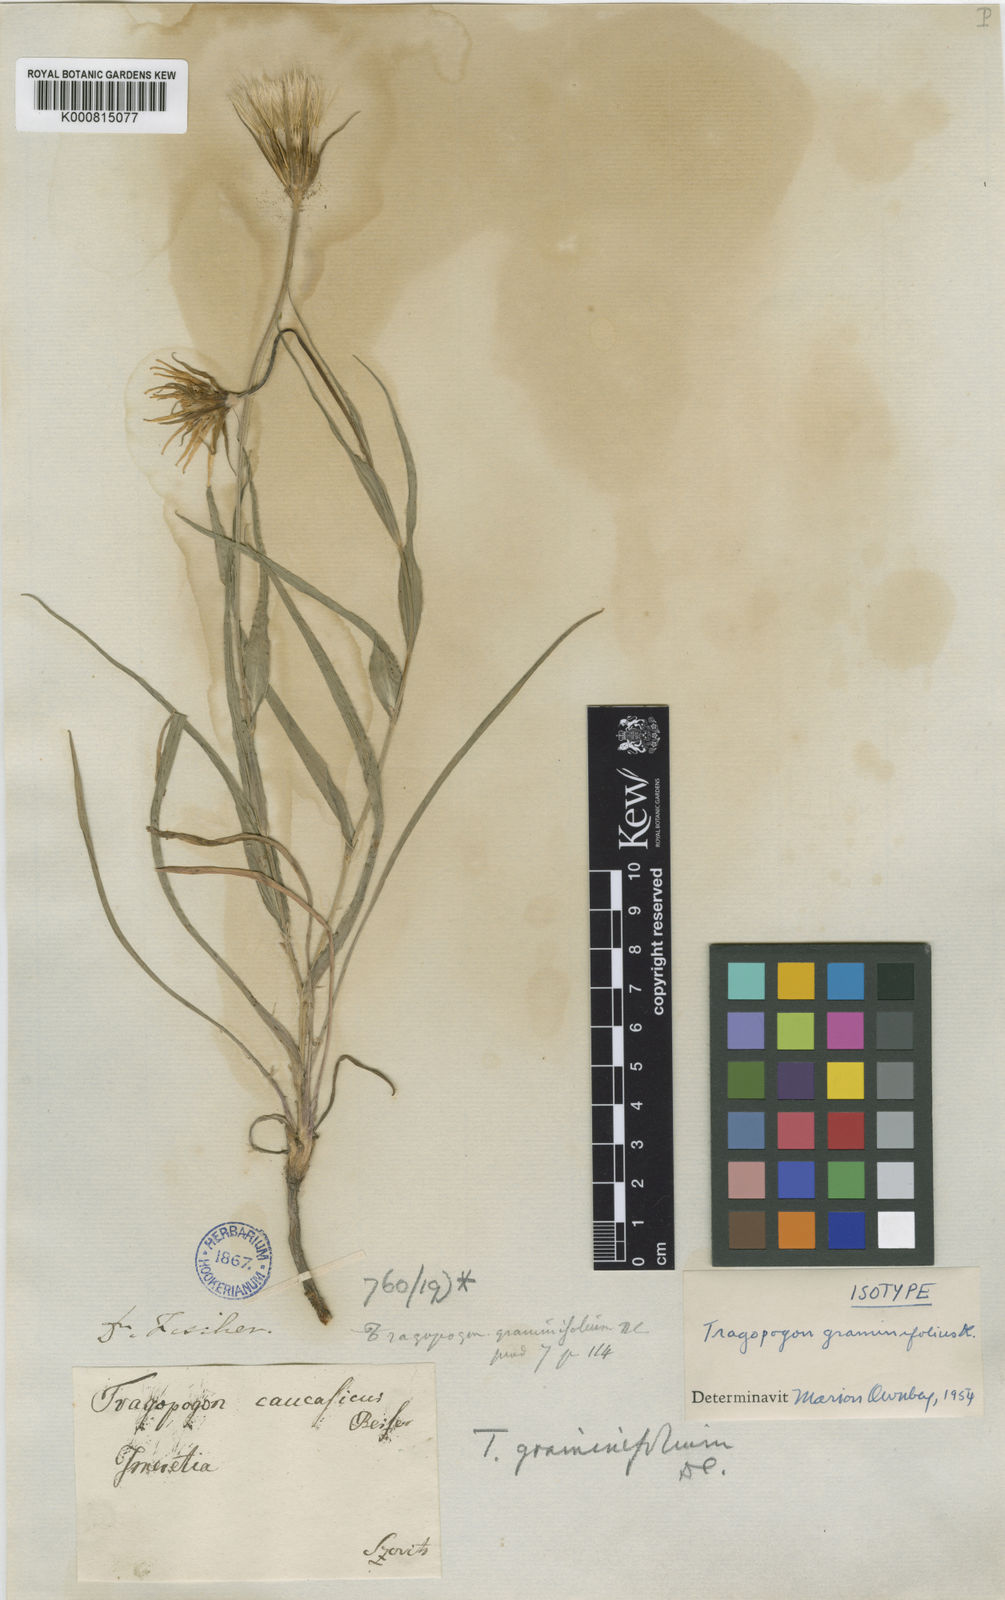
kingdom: Plantae
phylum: Tracheophyta
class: Magnoliopsida
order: Asterales
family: Asteraceae
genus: Tragopogon
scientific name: Tragopogon graminifolius
